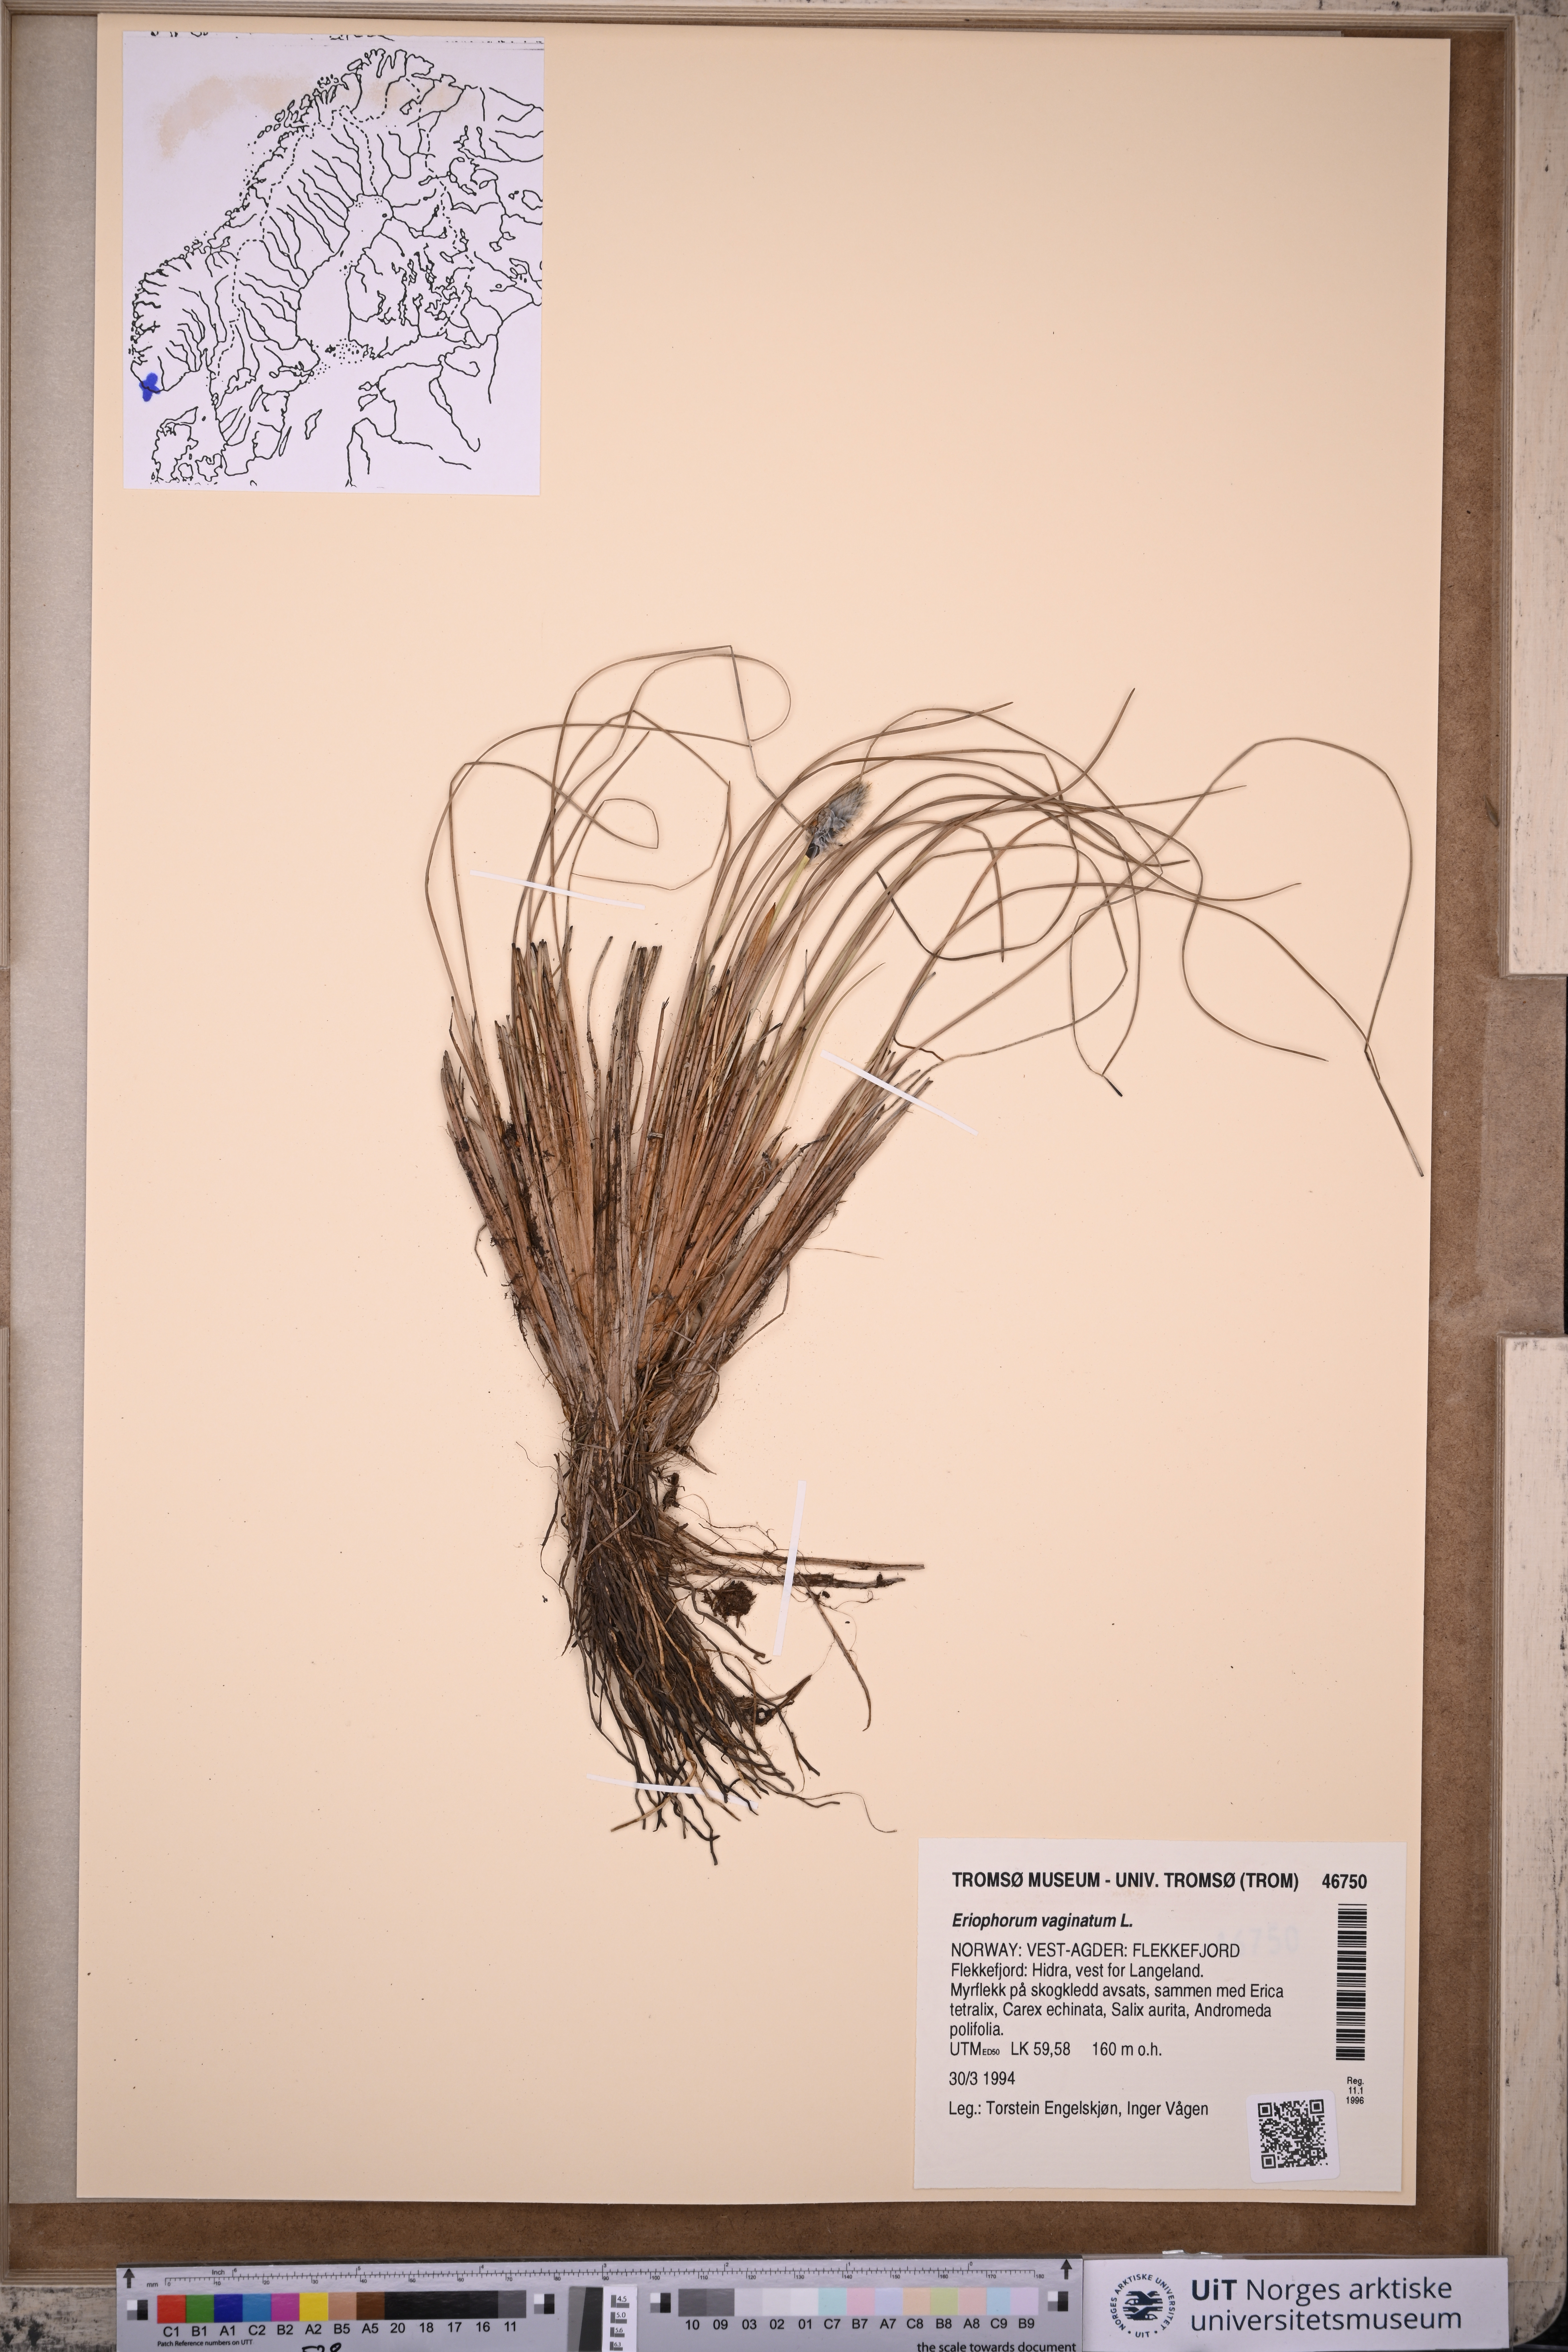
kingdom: Plantae
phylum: Tracheophyta
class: Liliopsida
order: Poales
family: Cyperaceae
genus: Eriophorum
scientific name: Eriophorum vaginatum
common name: Hare's-tail cottongrass
